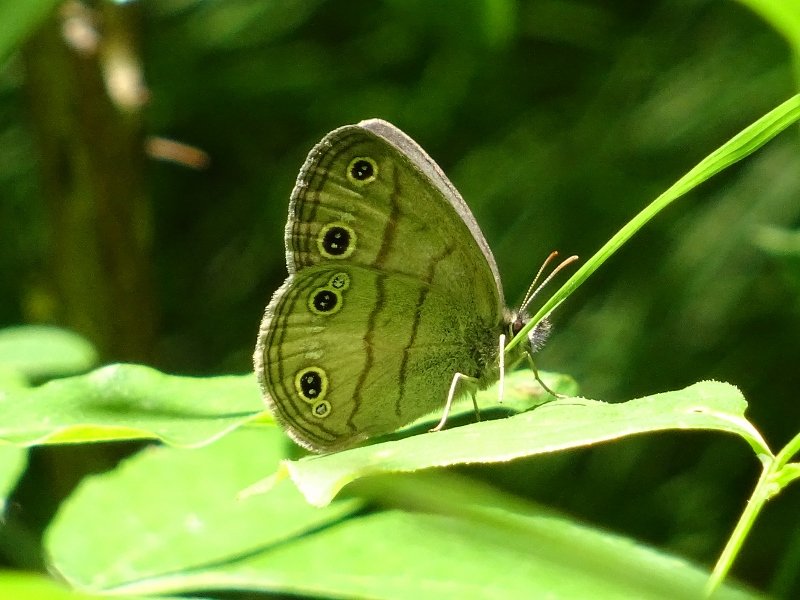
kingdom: Animalia
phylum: Arthropoda
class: Insecta
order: Lepidoptera
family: Nymphalidae
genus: Euptychia
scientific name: Euptychia cymela
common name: Little Wood Satyr
